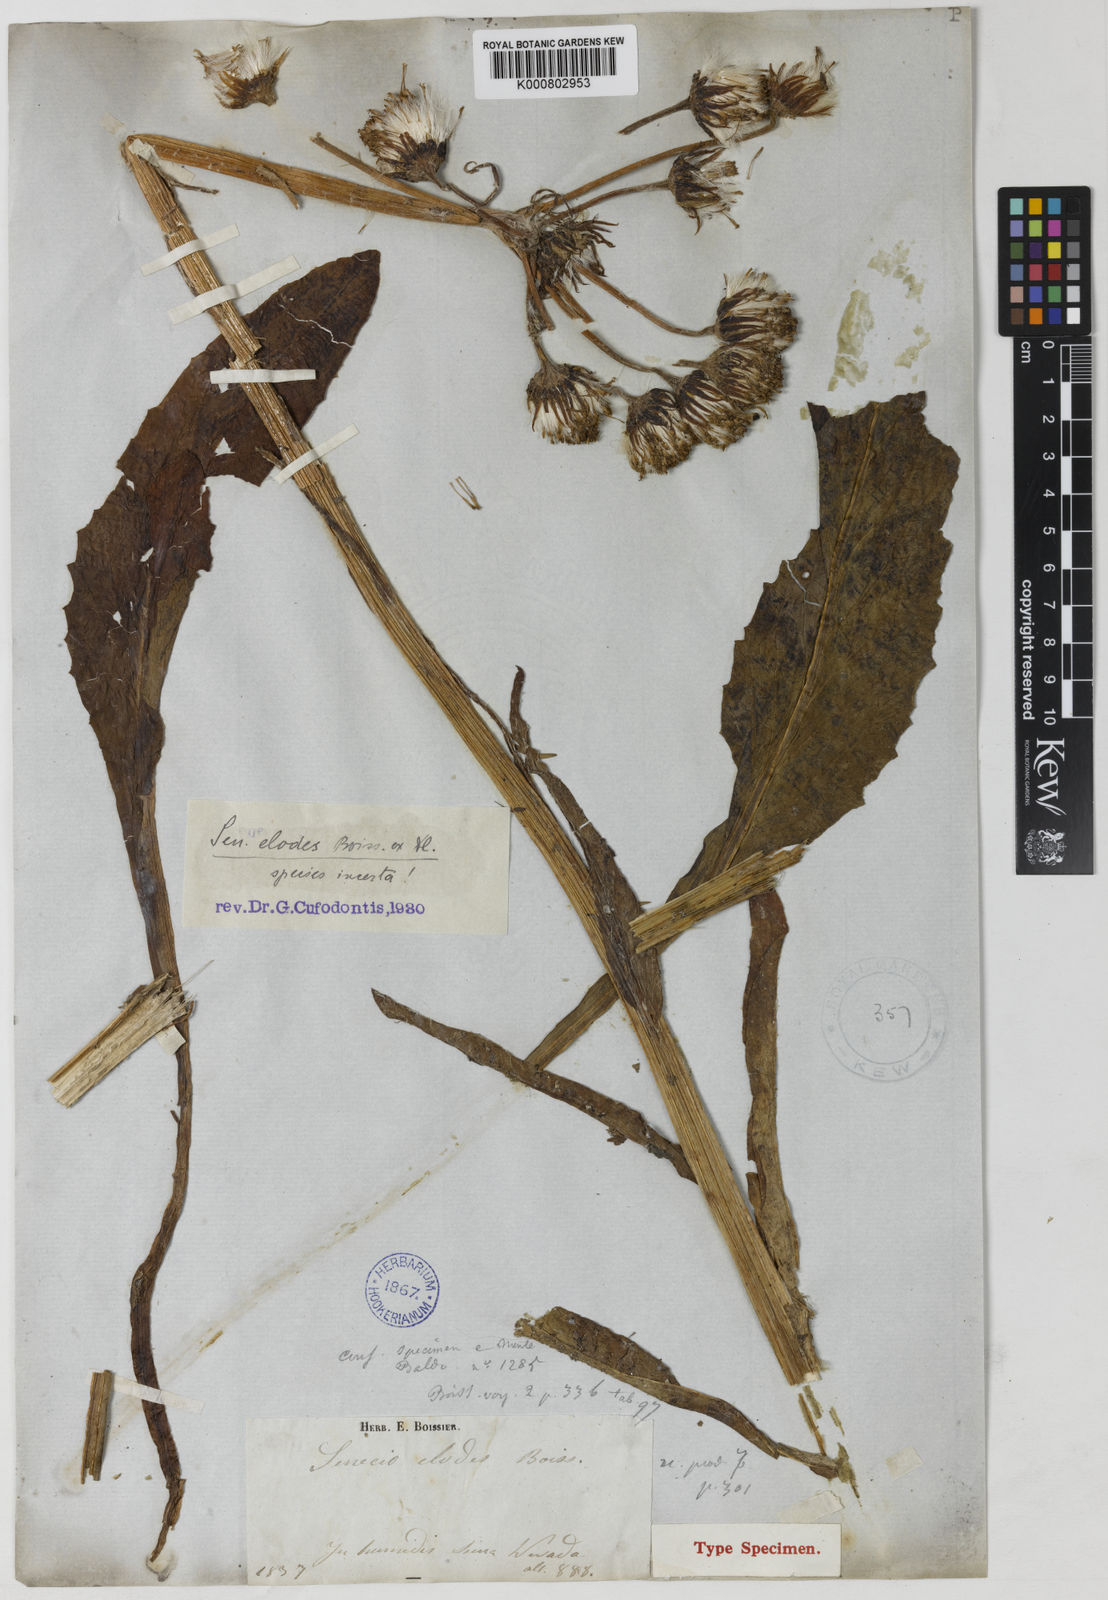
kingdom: Plantae
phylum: Tracheophyta
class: Magnoliopsida
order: Asterales
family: Asteraceae
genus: Tephroseris
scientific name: Tephroseris elodes
